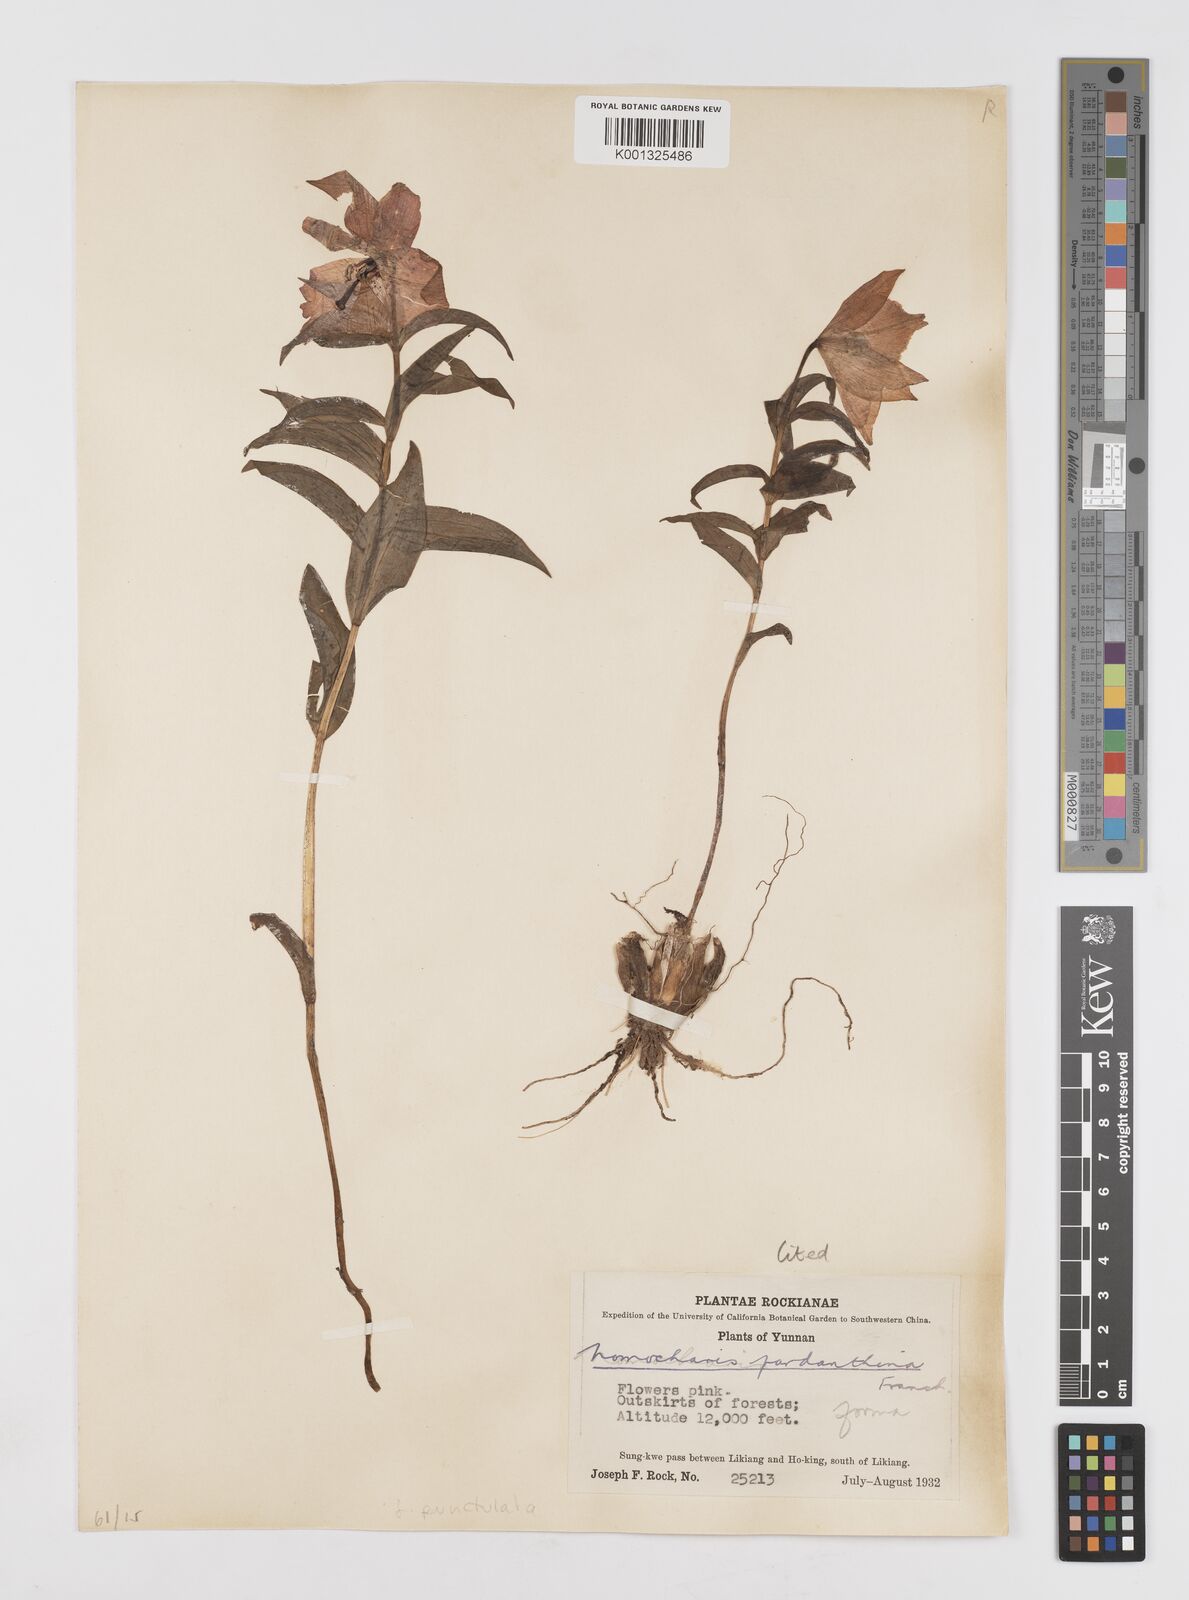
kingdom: Plantae
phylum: Tracheophyta
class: Liliopsida
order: Liliales
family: Liliaceae
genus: Lilium
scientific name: Lilium pardanthinum
